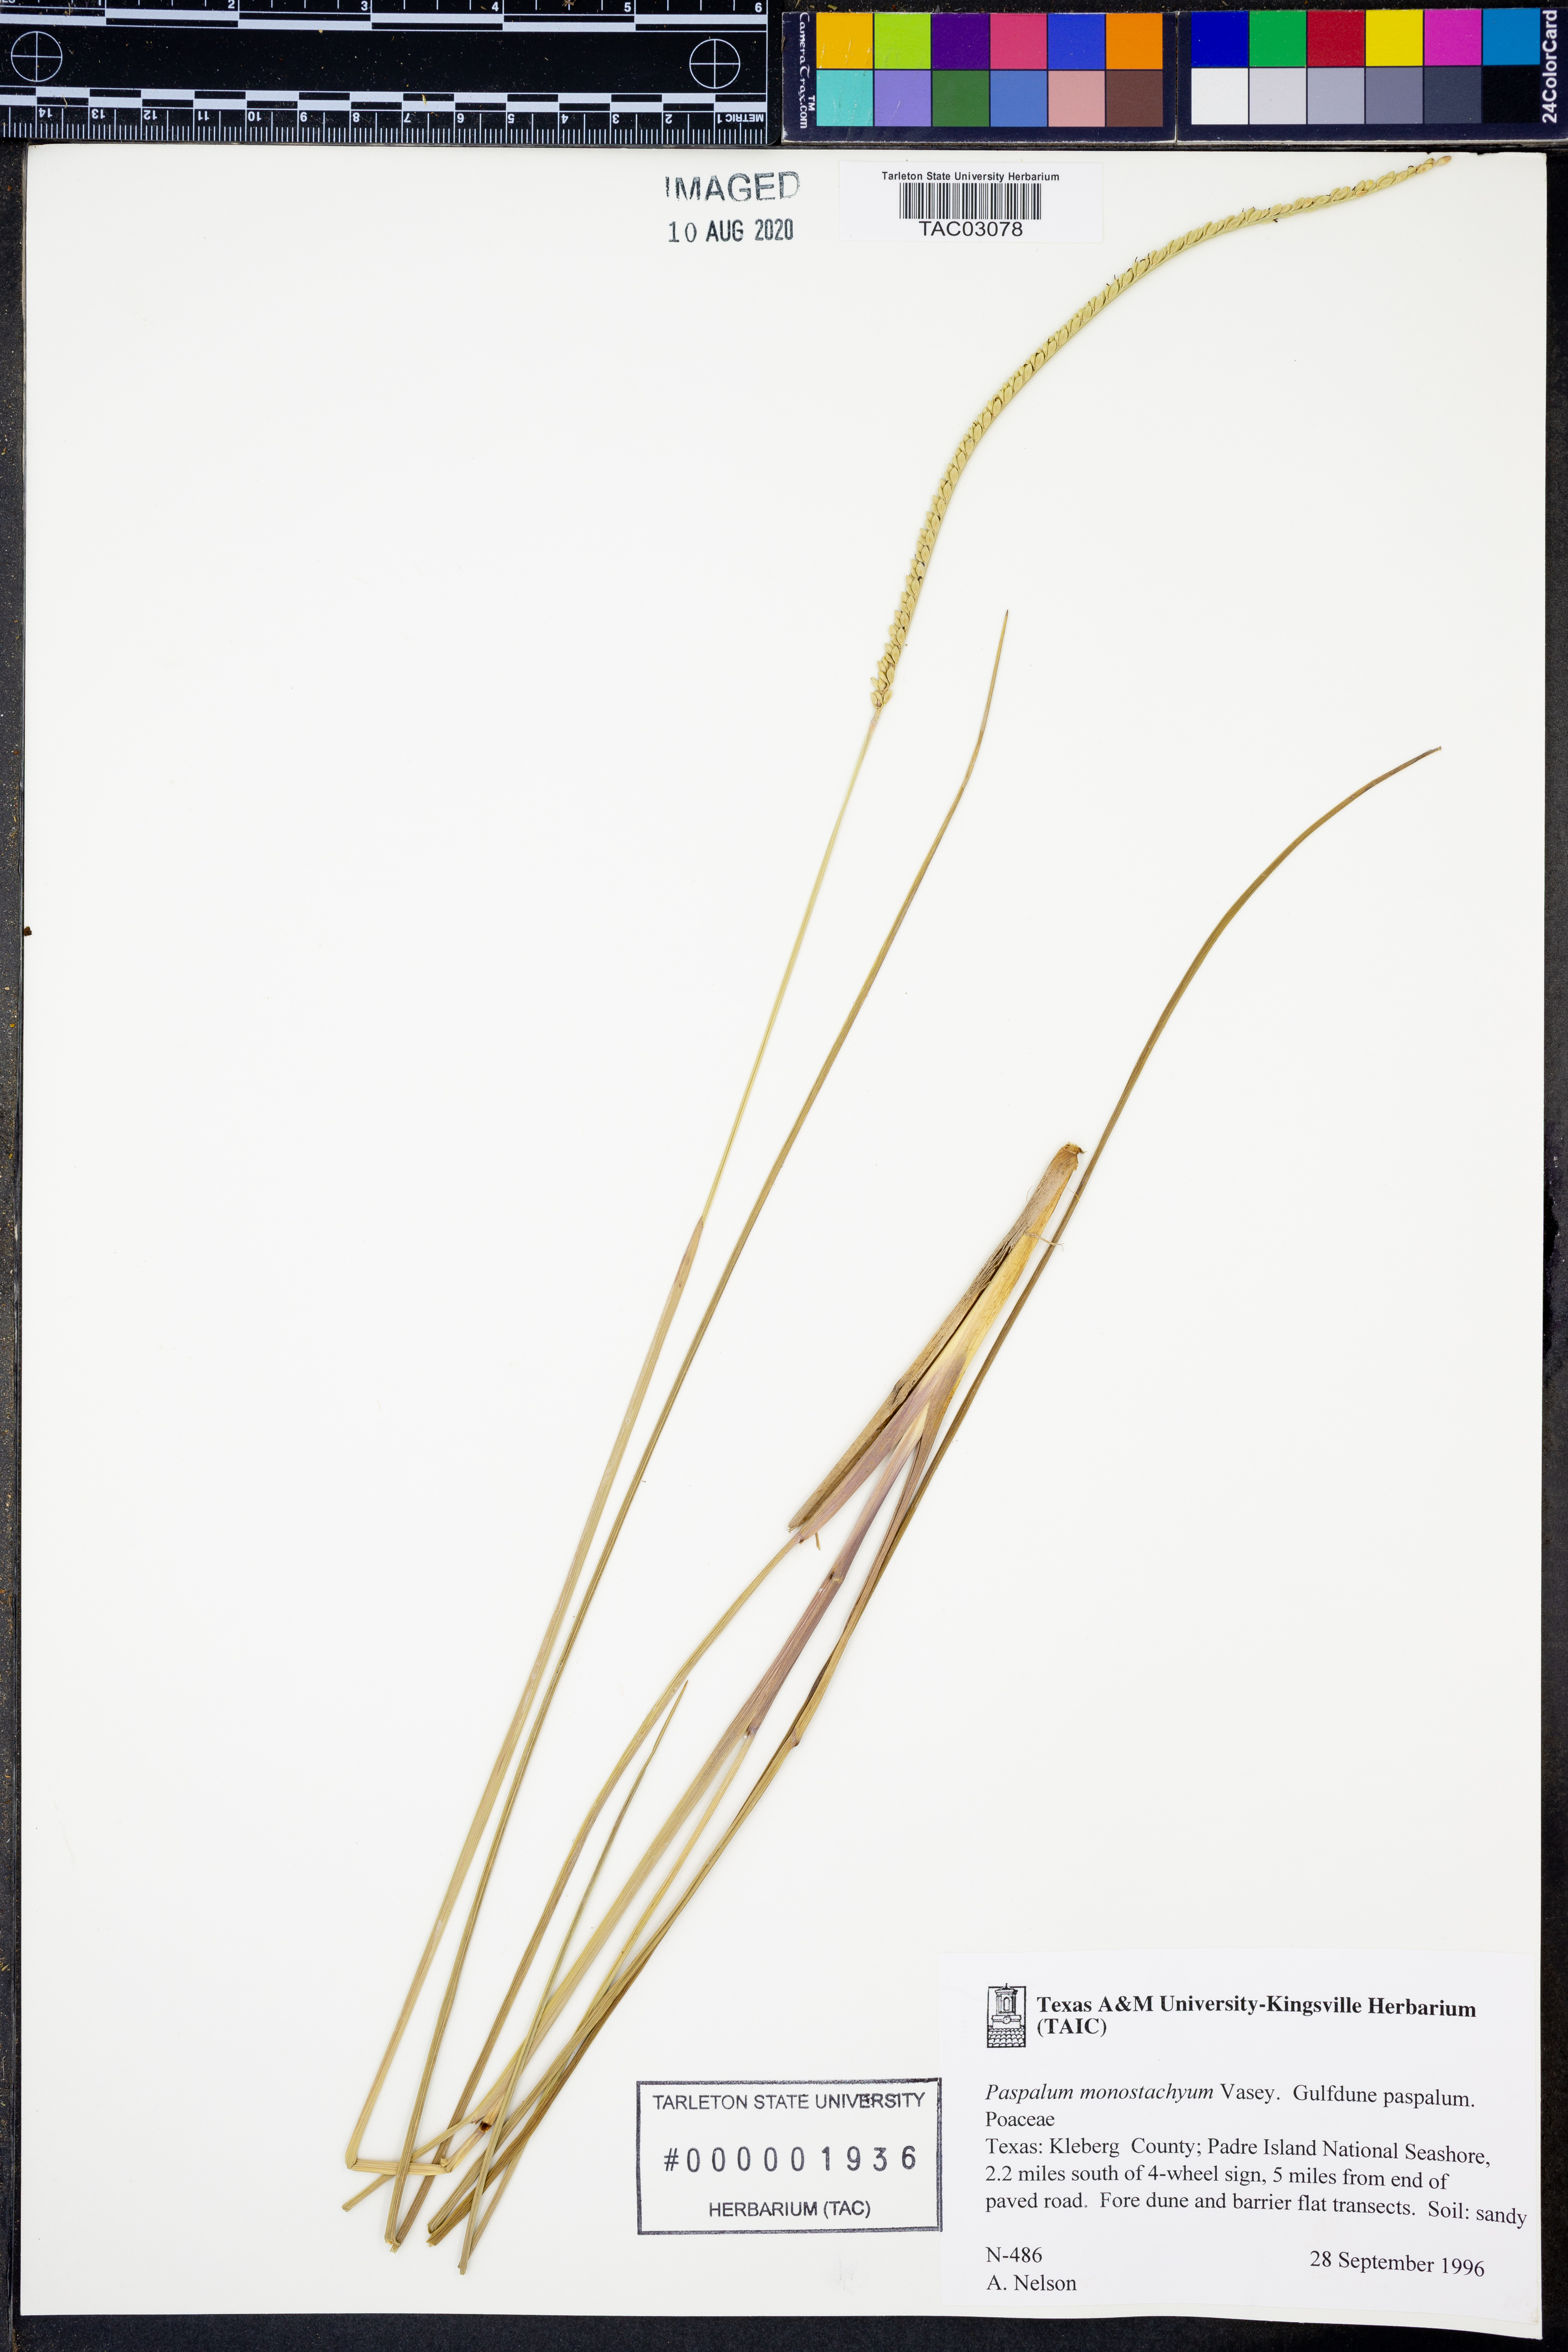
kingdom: Plantae
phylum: Tracheophyta
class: Liliopsida
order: Poales
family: Poaceae
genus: Paspalum
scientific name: Paspalum monostachyum
